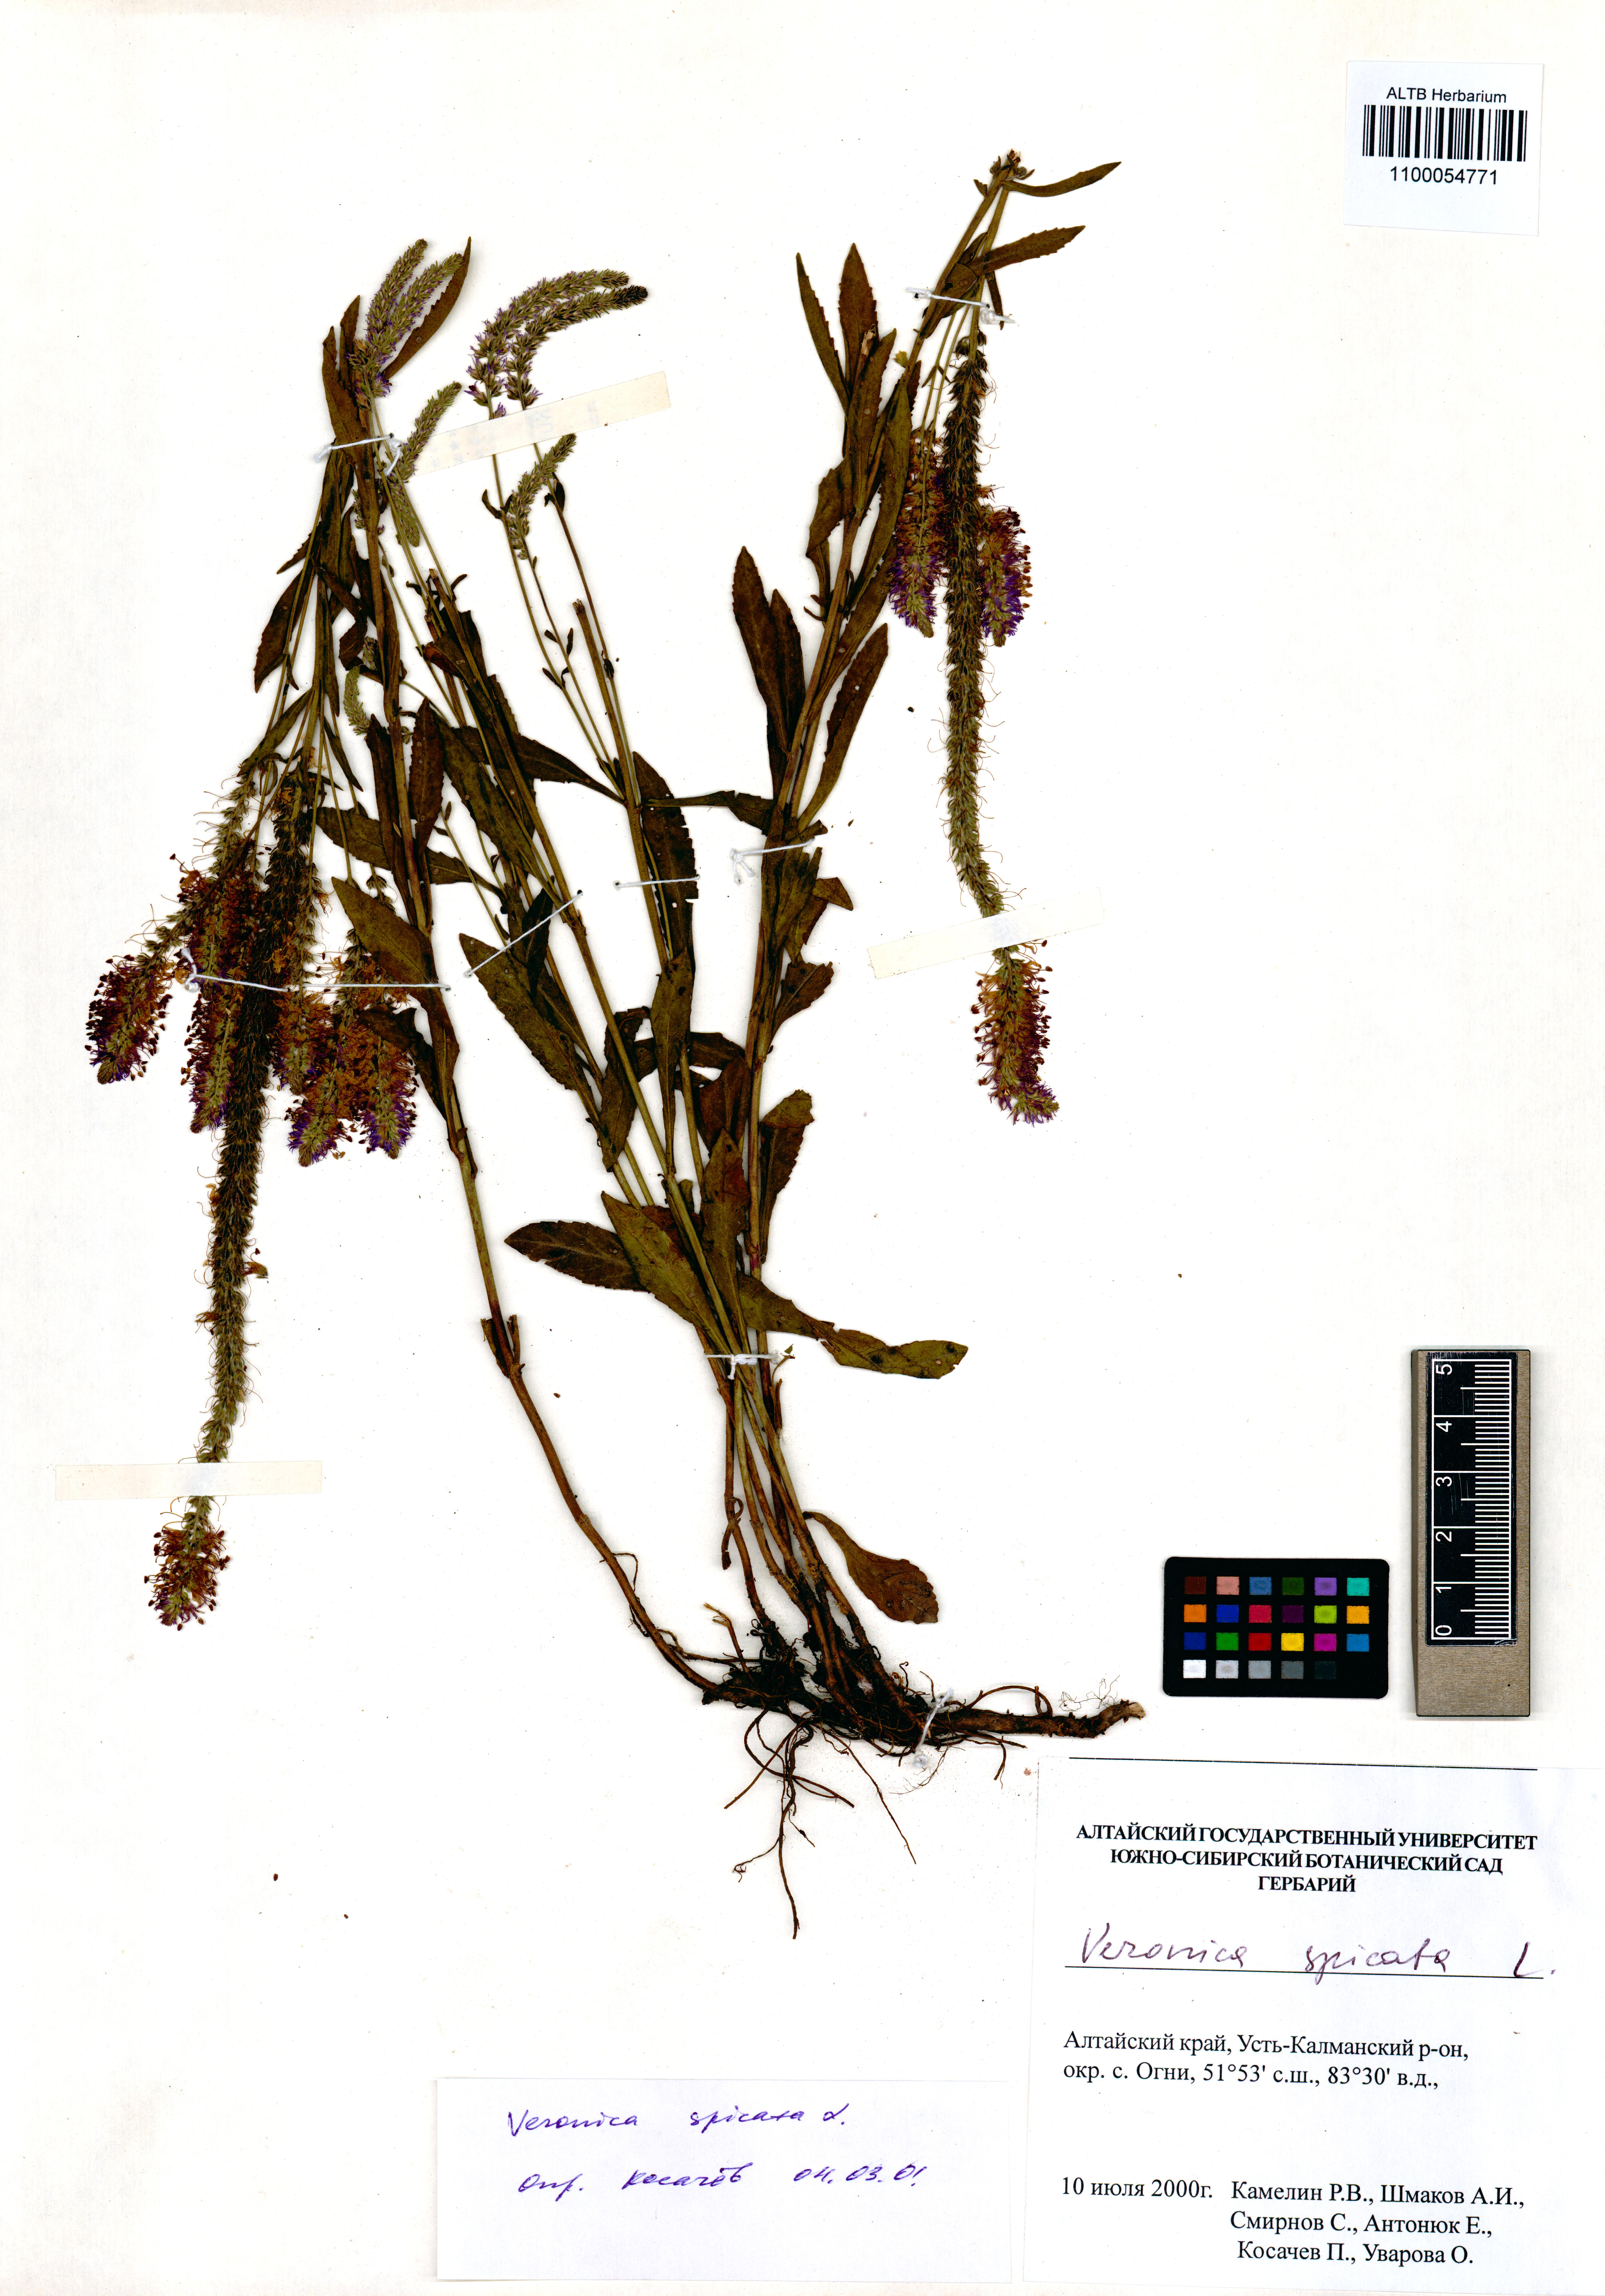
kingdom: Plantae
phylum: Tracheophyta
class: Magnoliopsida
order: Lamiales
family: Plantaginaceae
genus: Veronica
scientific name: Veronica spicata
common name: Spiked speedwell
